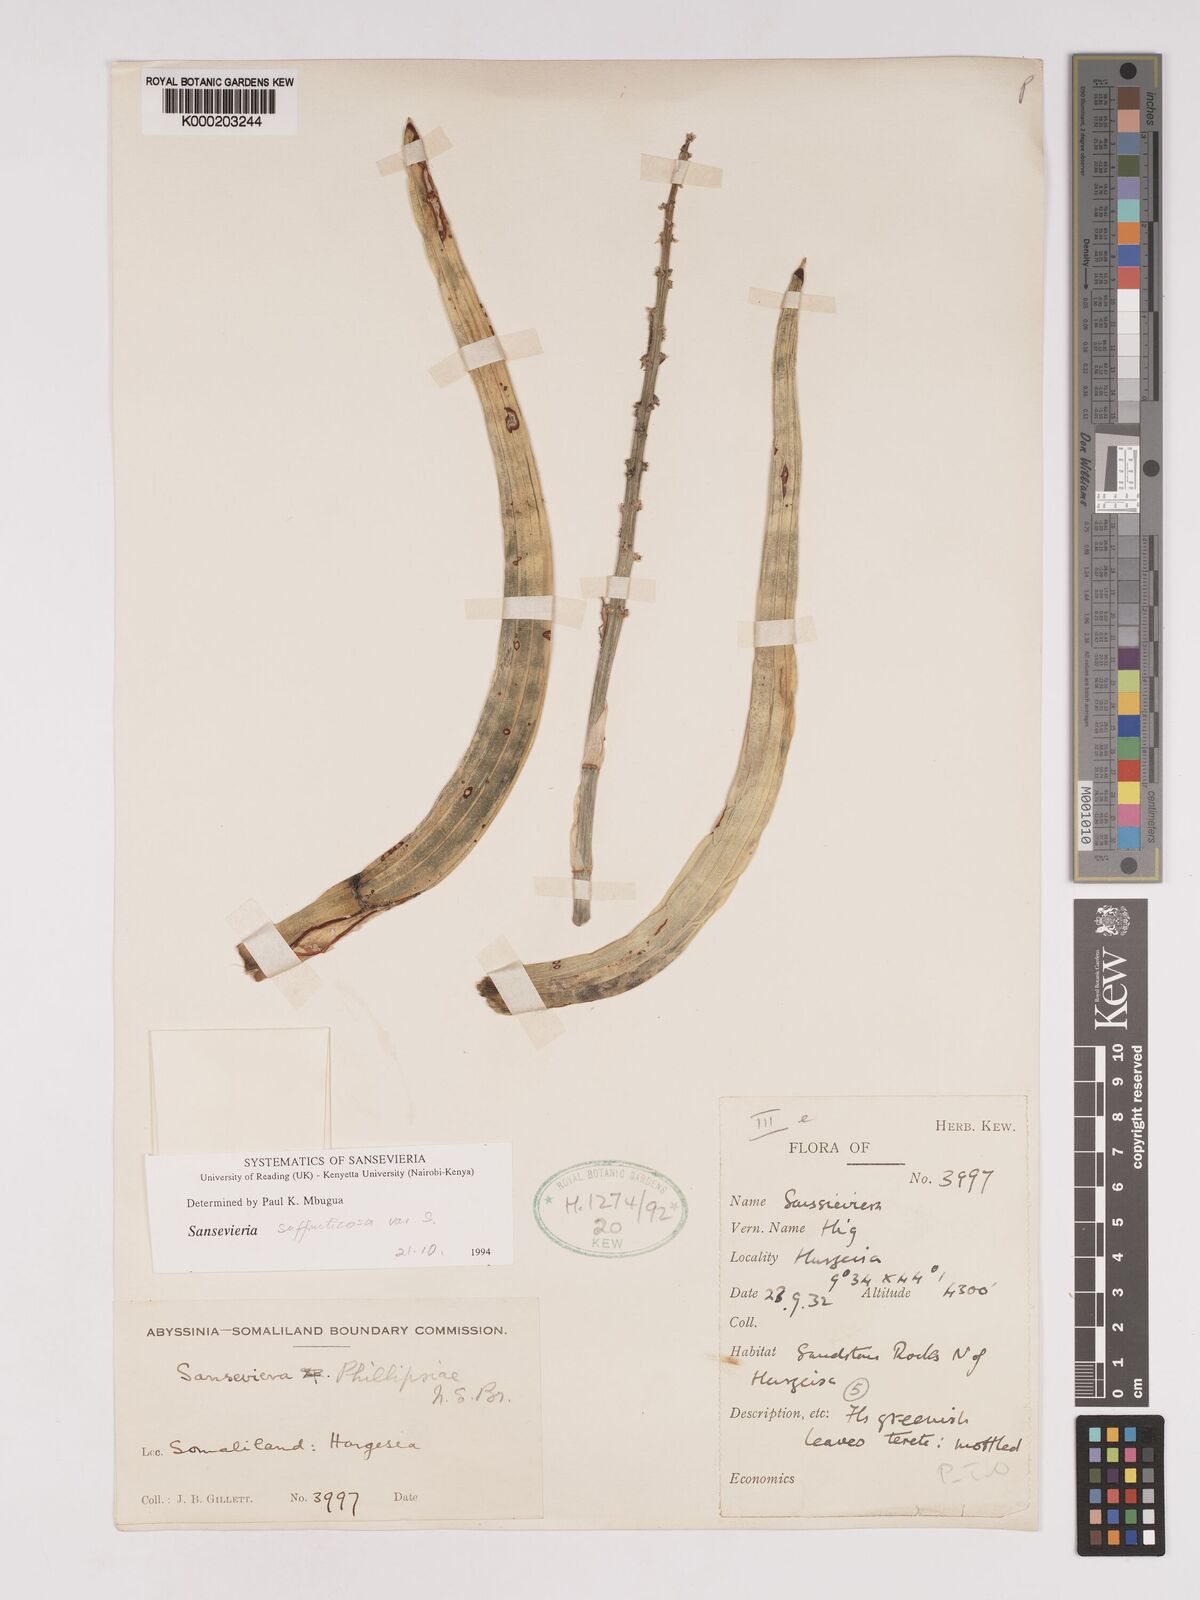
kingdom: Plantae
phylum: Tracheophyta
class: Liliopsida
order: Asparagales
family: Asparagaceae
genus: Dracaena
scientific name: Dracaena suffruticosa
